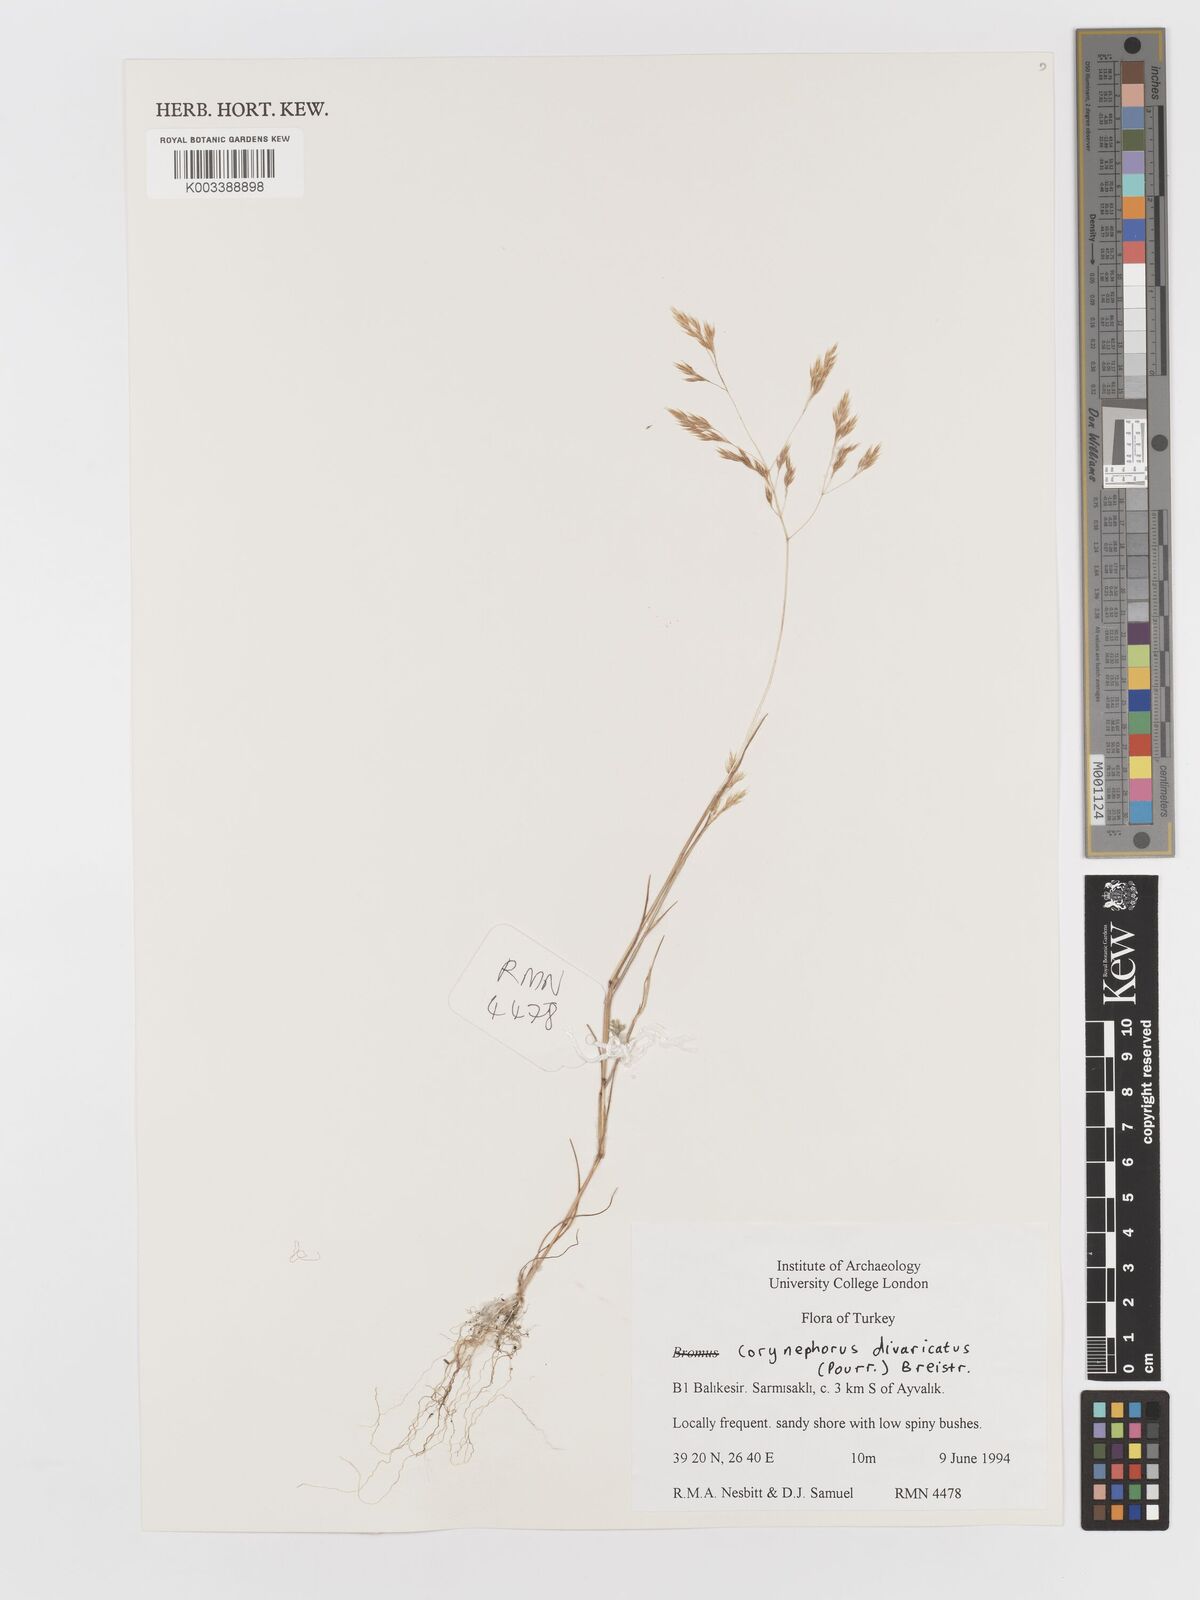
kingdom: Plantae
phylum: Tracheophyta
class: Liliopsida
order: Poales
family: Poaceae
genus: Corynephorus
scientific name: Corynephorus divaricatus
